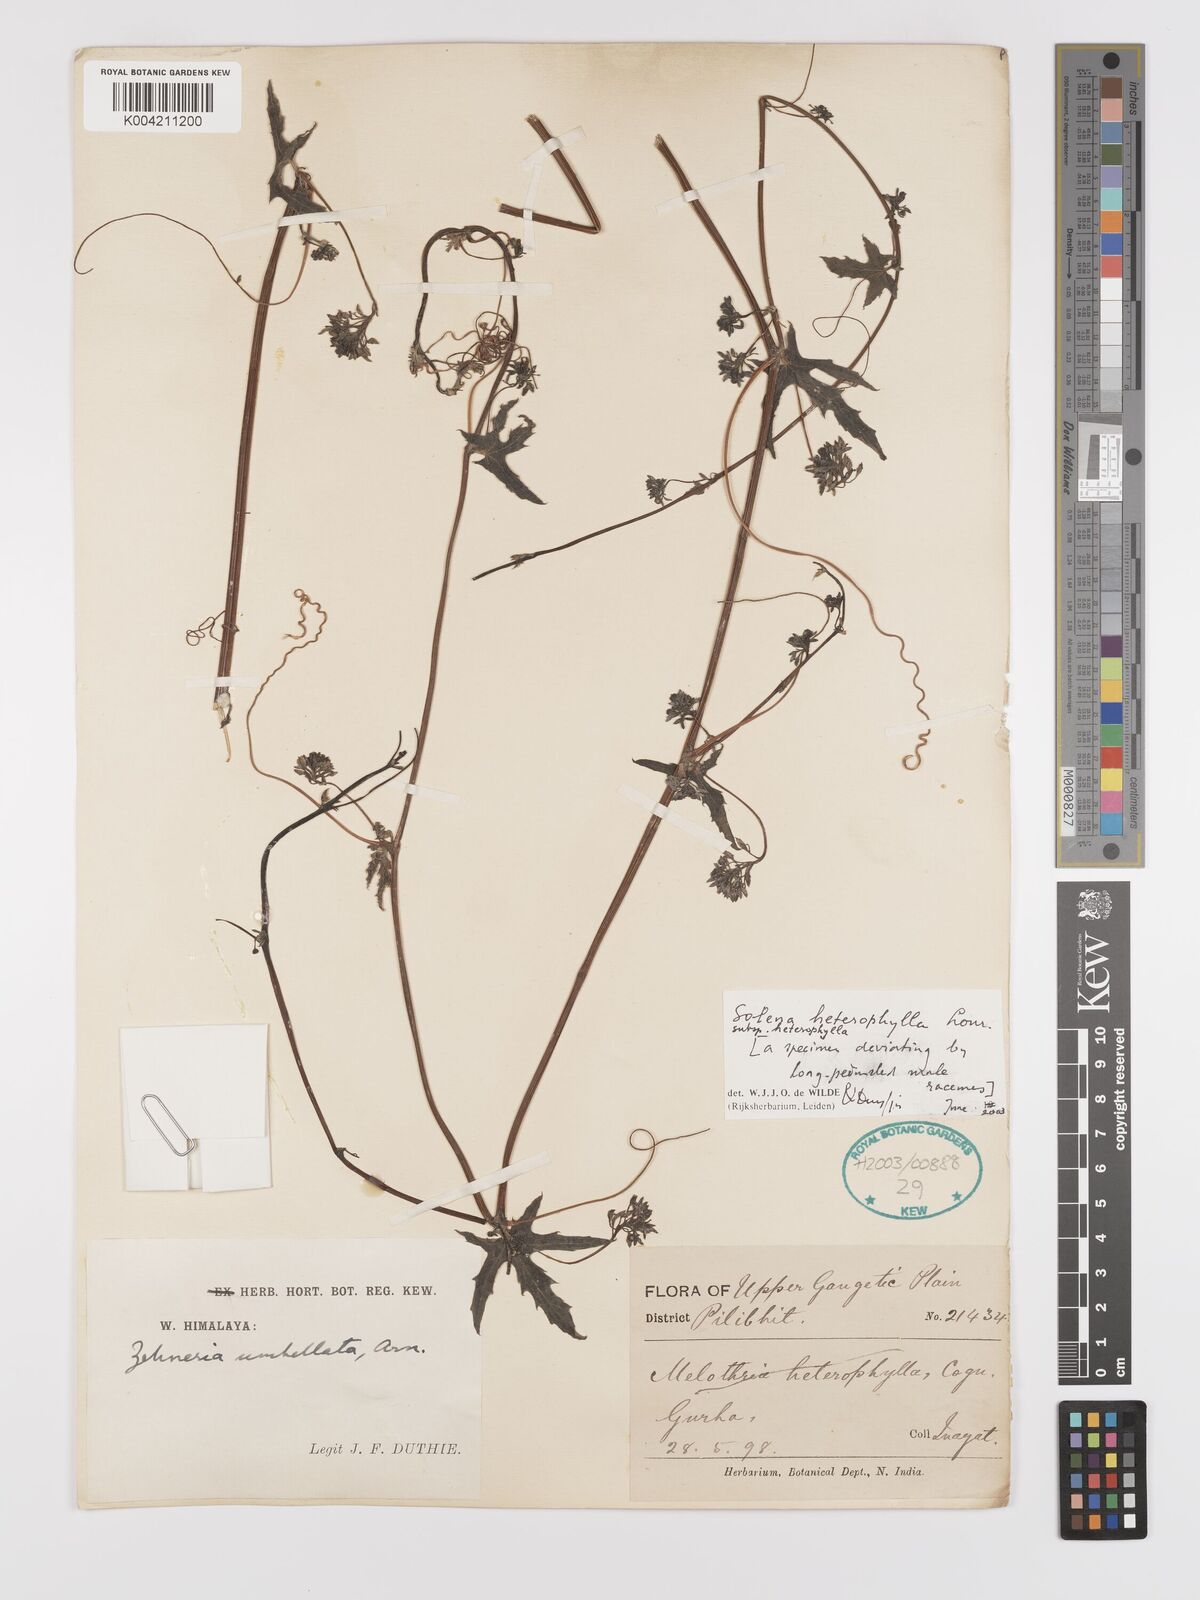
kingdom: Plantae
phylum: Tracheophyta
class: Magnoliopsida
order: Cucurbitales
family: Cucurbitaceae
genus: Solena
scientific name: Solena amplexicaulis
